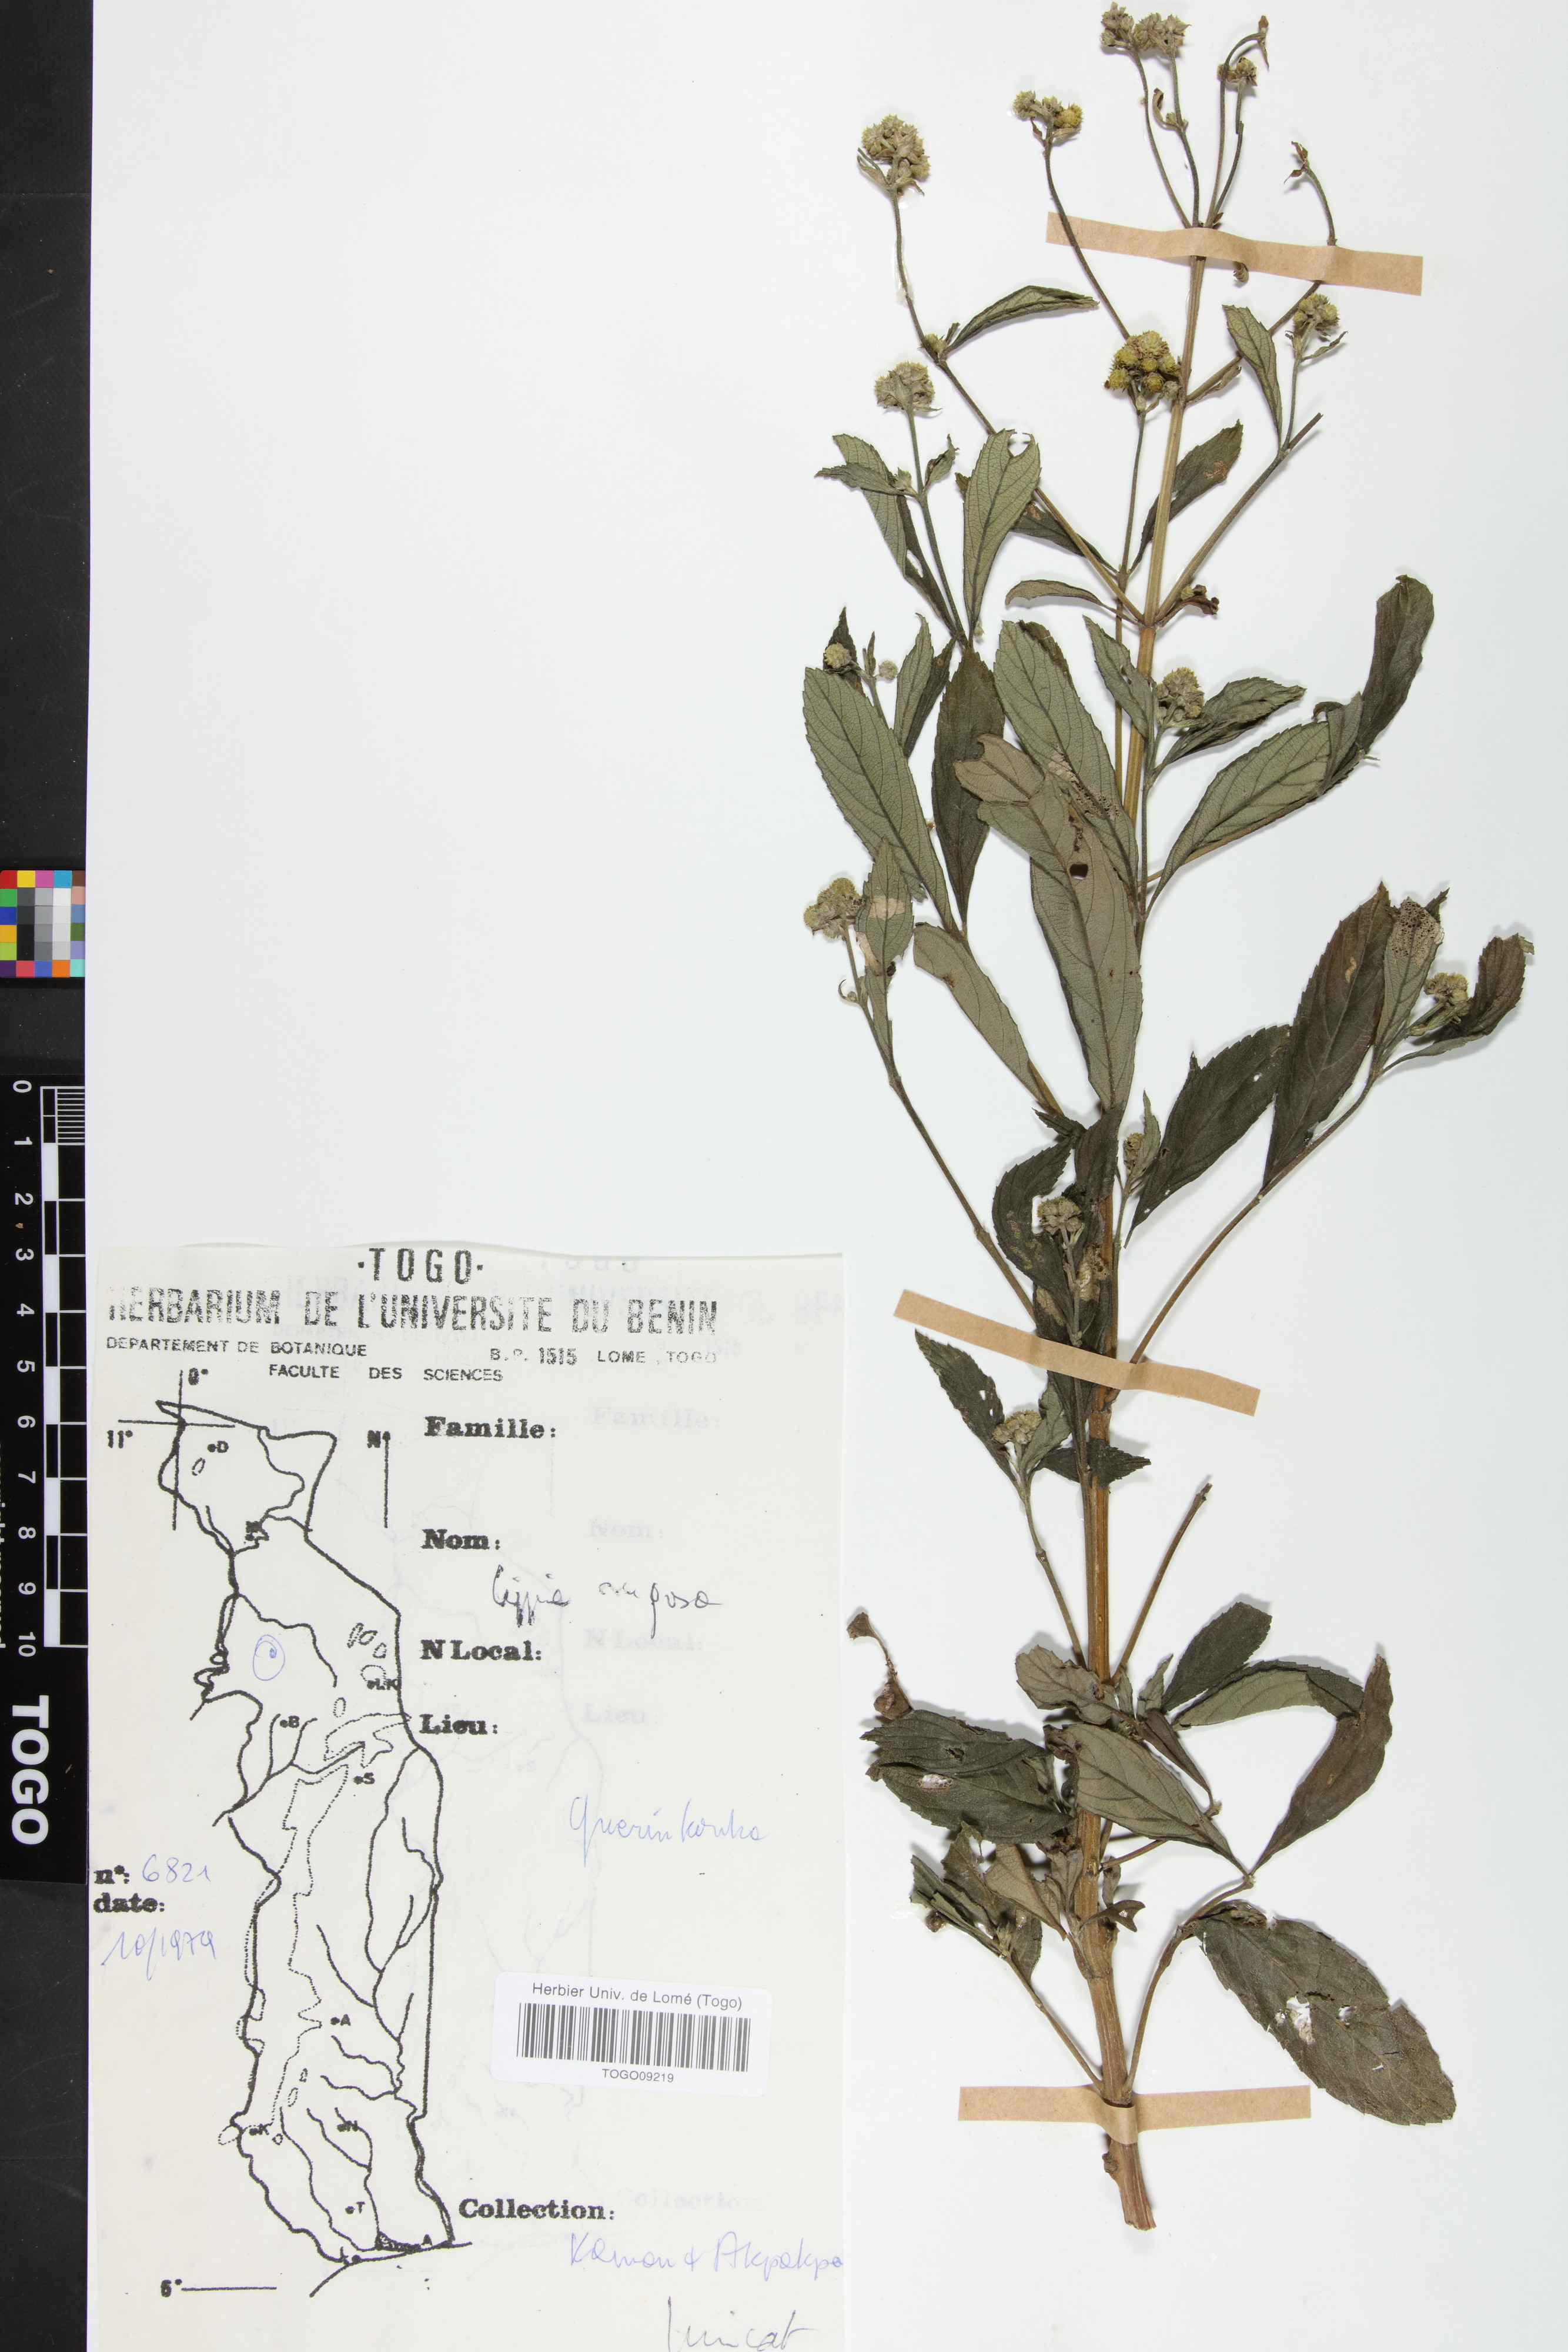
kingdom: Plantae
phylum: Tracheophyta
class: Magnoliopsida
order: Lamiales
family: Verbenaceae
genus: Lippia
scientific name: Lippia rugosa
